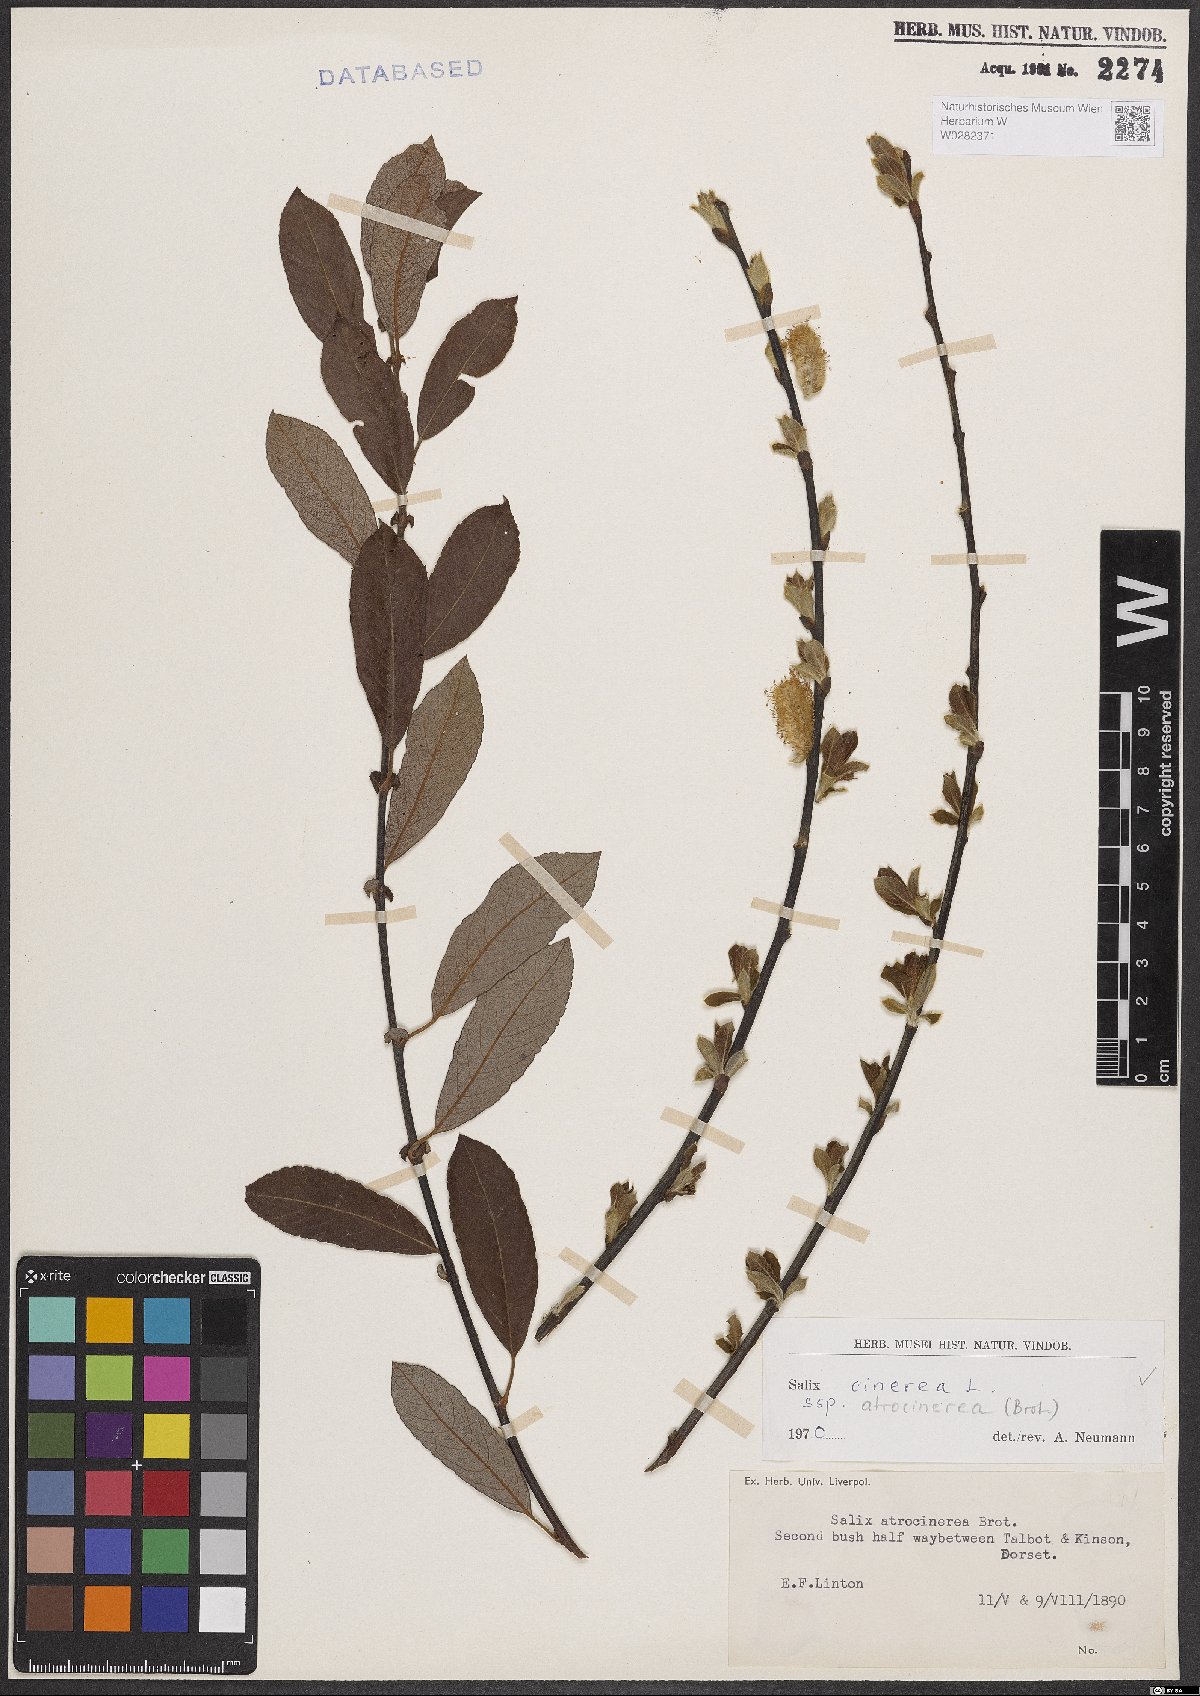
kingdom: Plantae
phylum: Tracheophyta
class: Magnoliopsida
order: Malpighiales
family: Salicaceae
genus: Salix
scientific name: Salix atrocinerea
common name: Rusty willow
